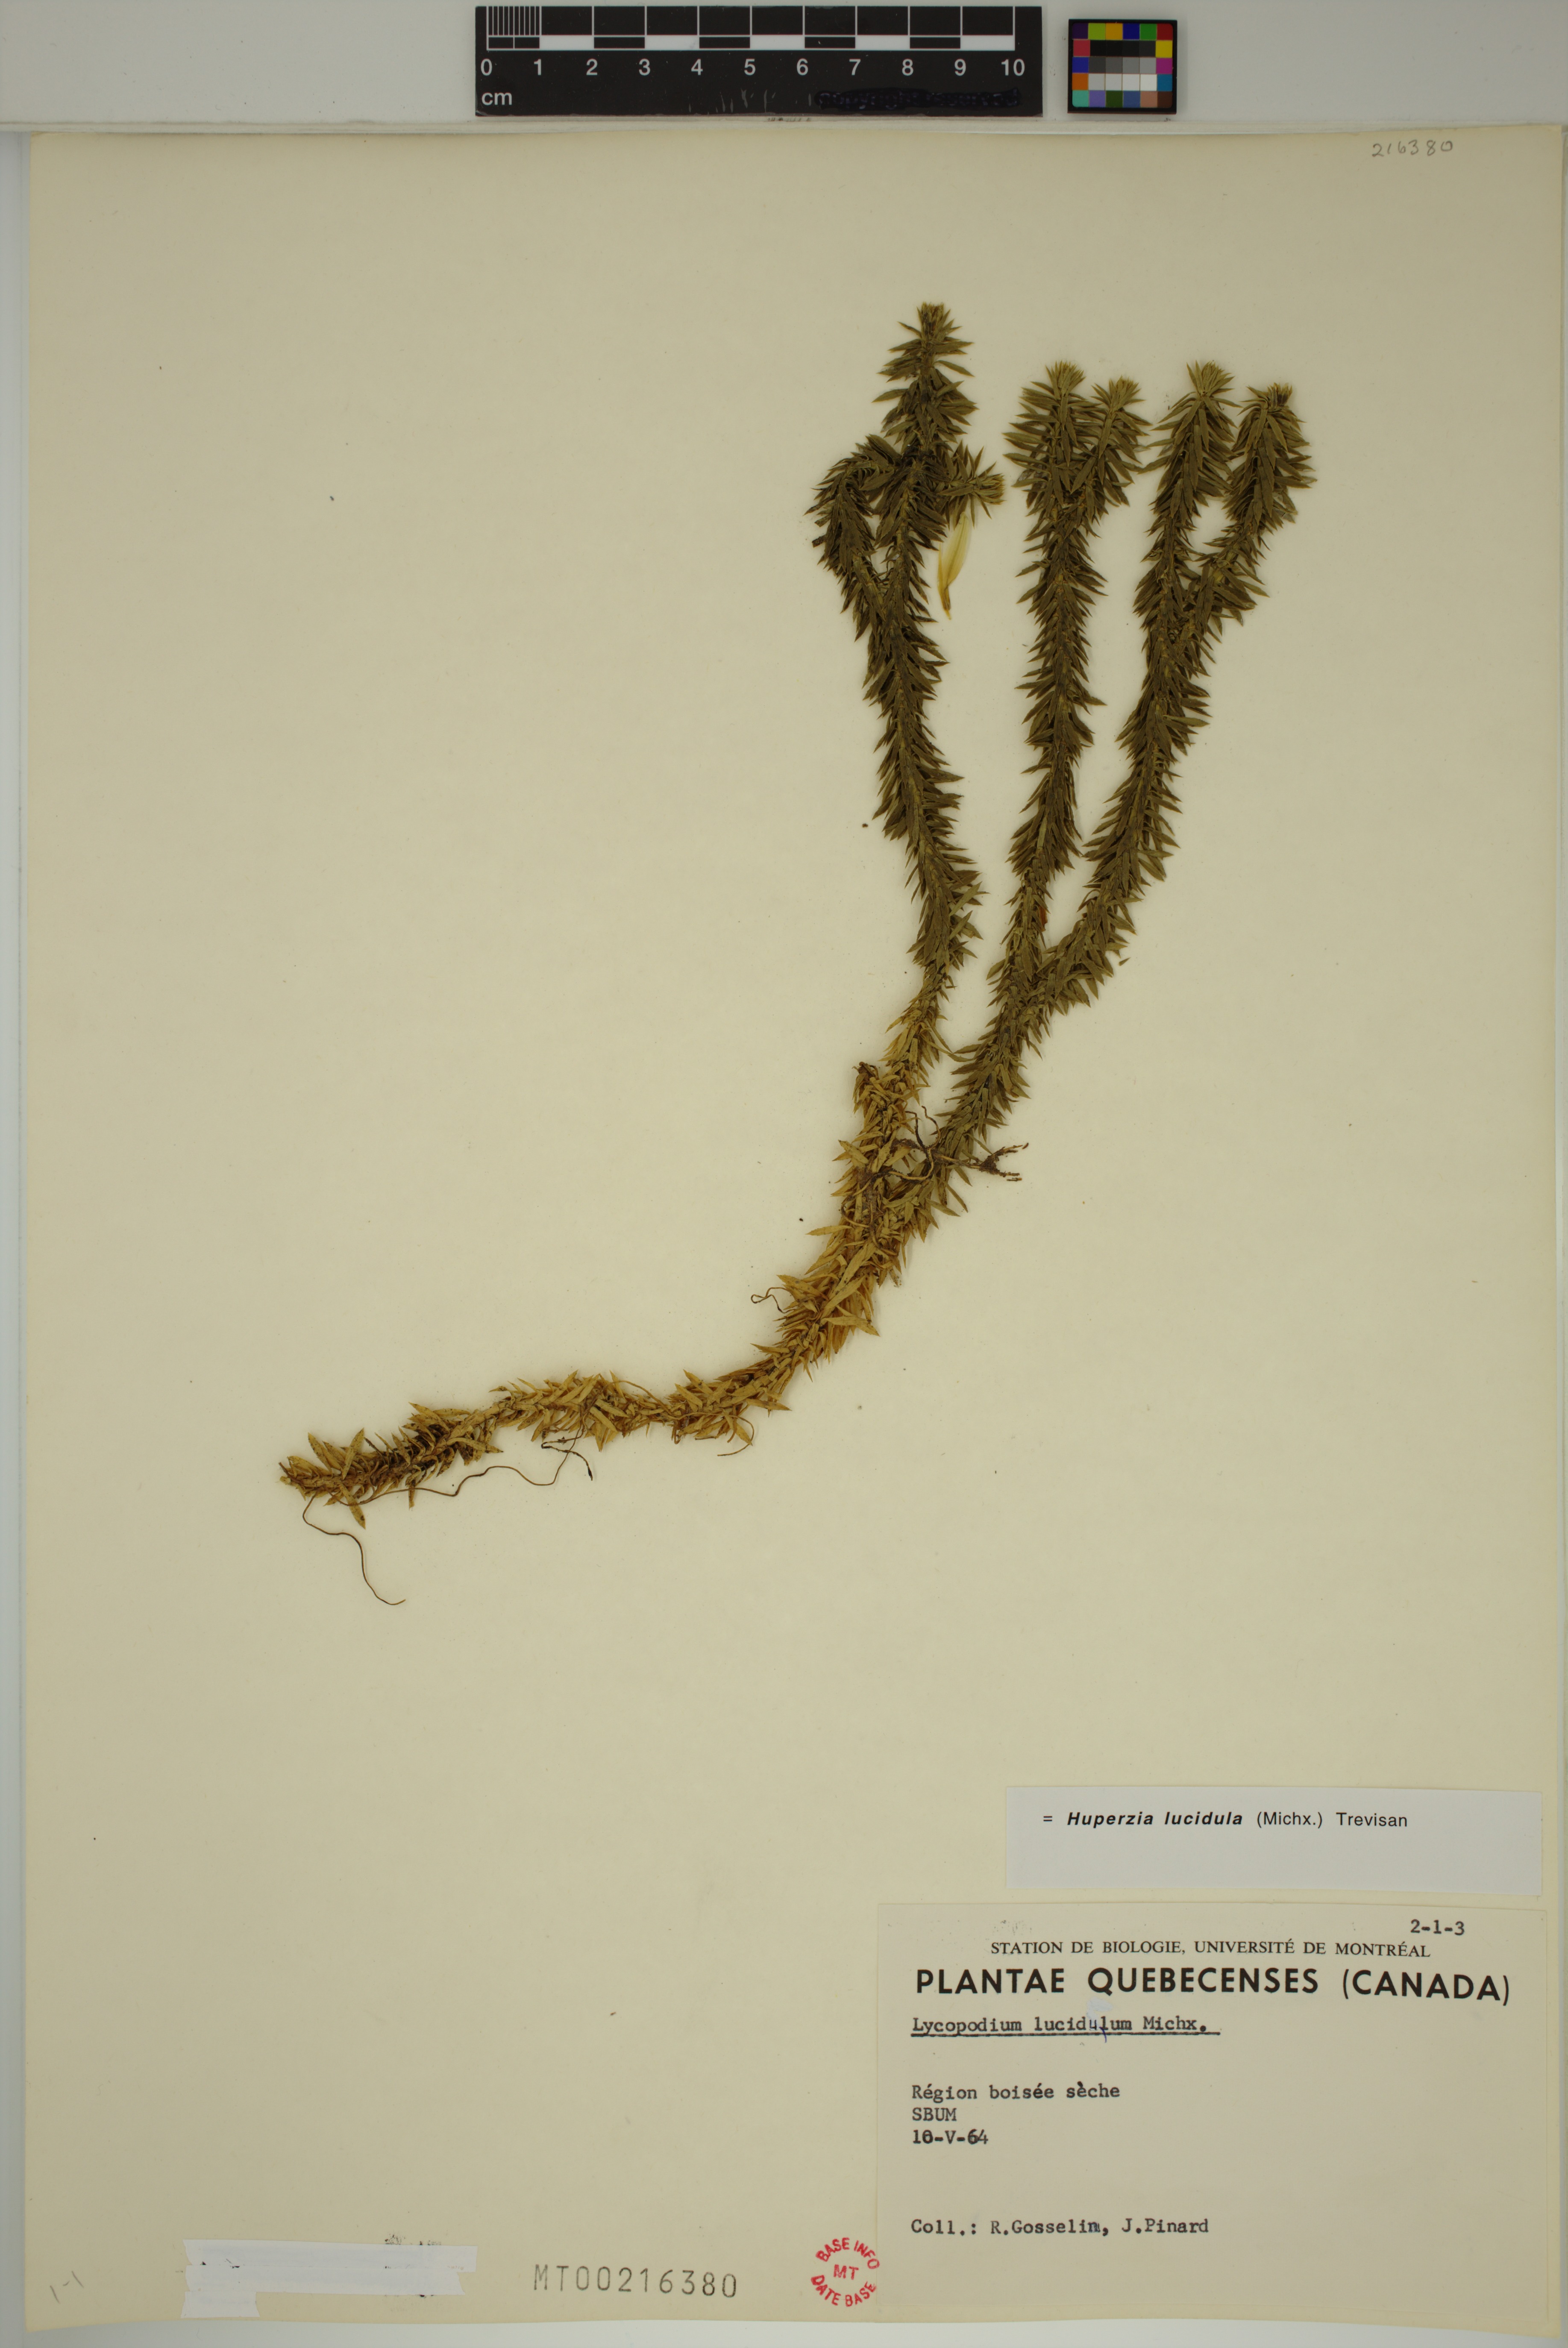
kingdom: Plantae
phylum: Tracheophyta
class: Lycopodiopsida
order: Lycopodiales
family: Lycopodiaceae
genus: Huperzia
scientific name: Huperzia lucidula
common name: Shining clubmoss
